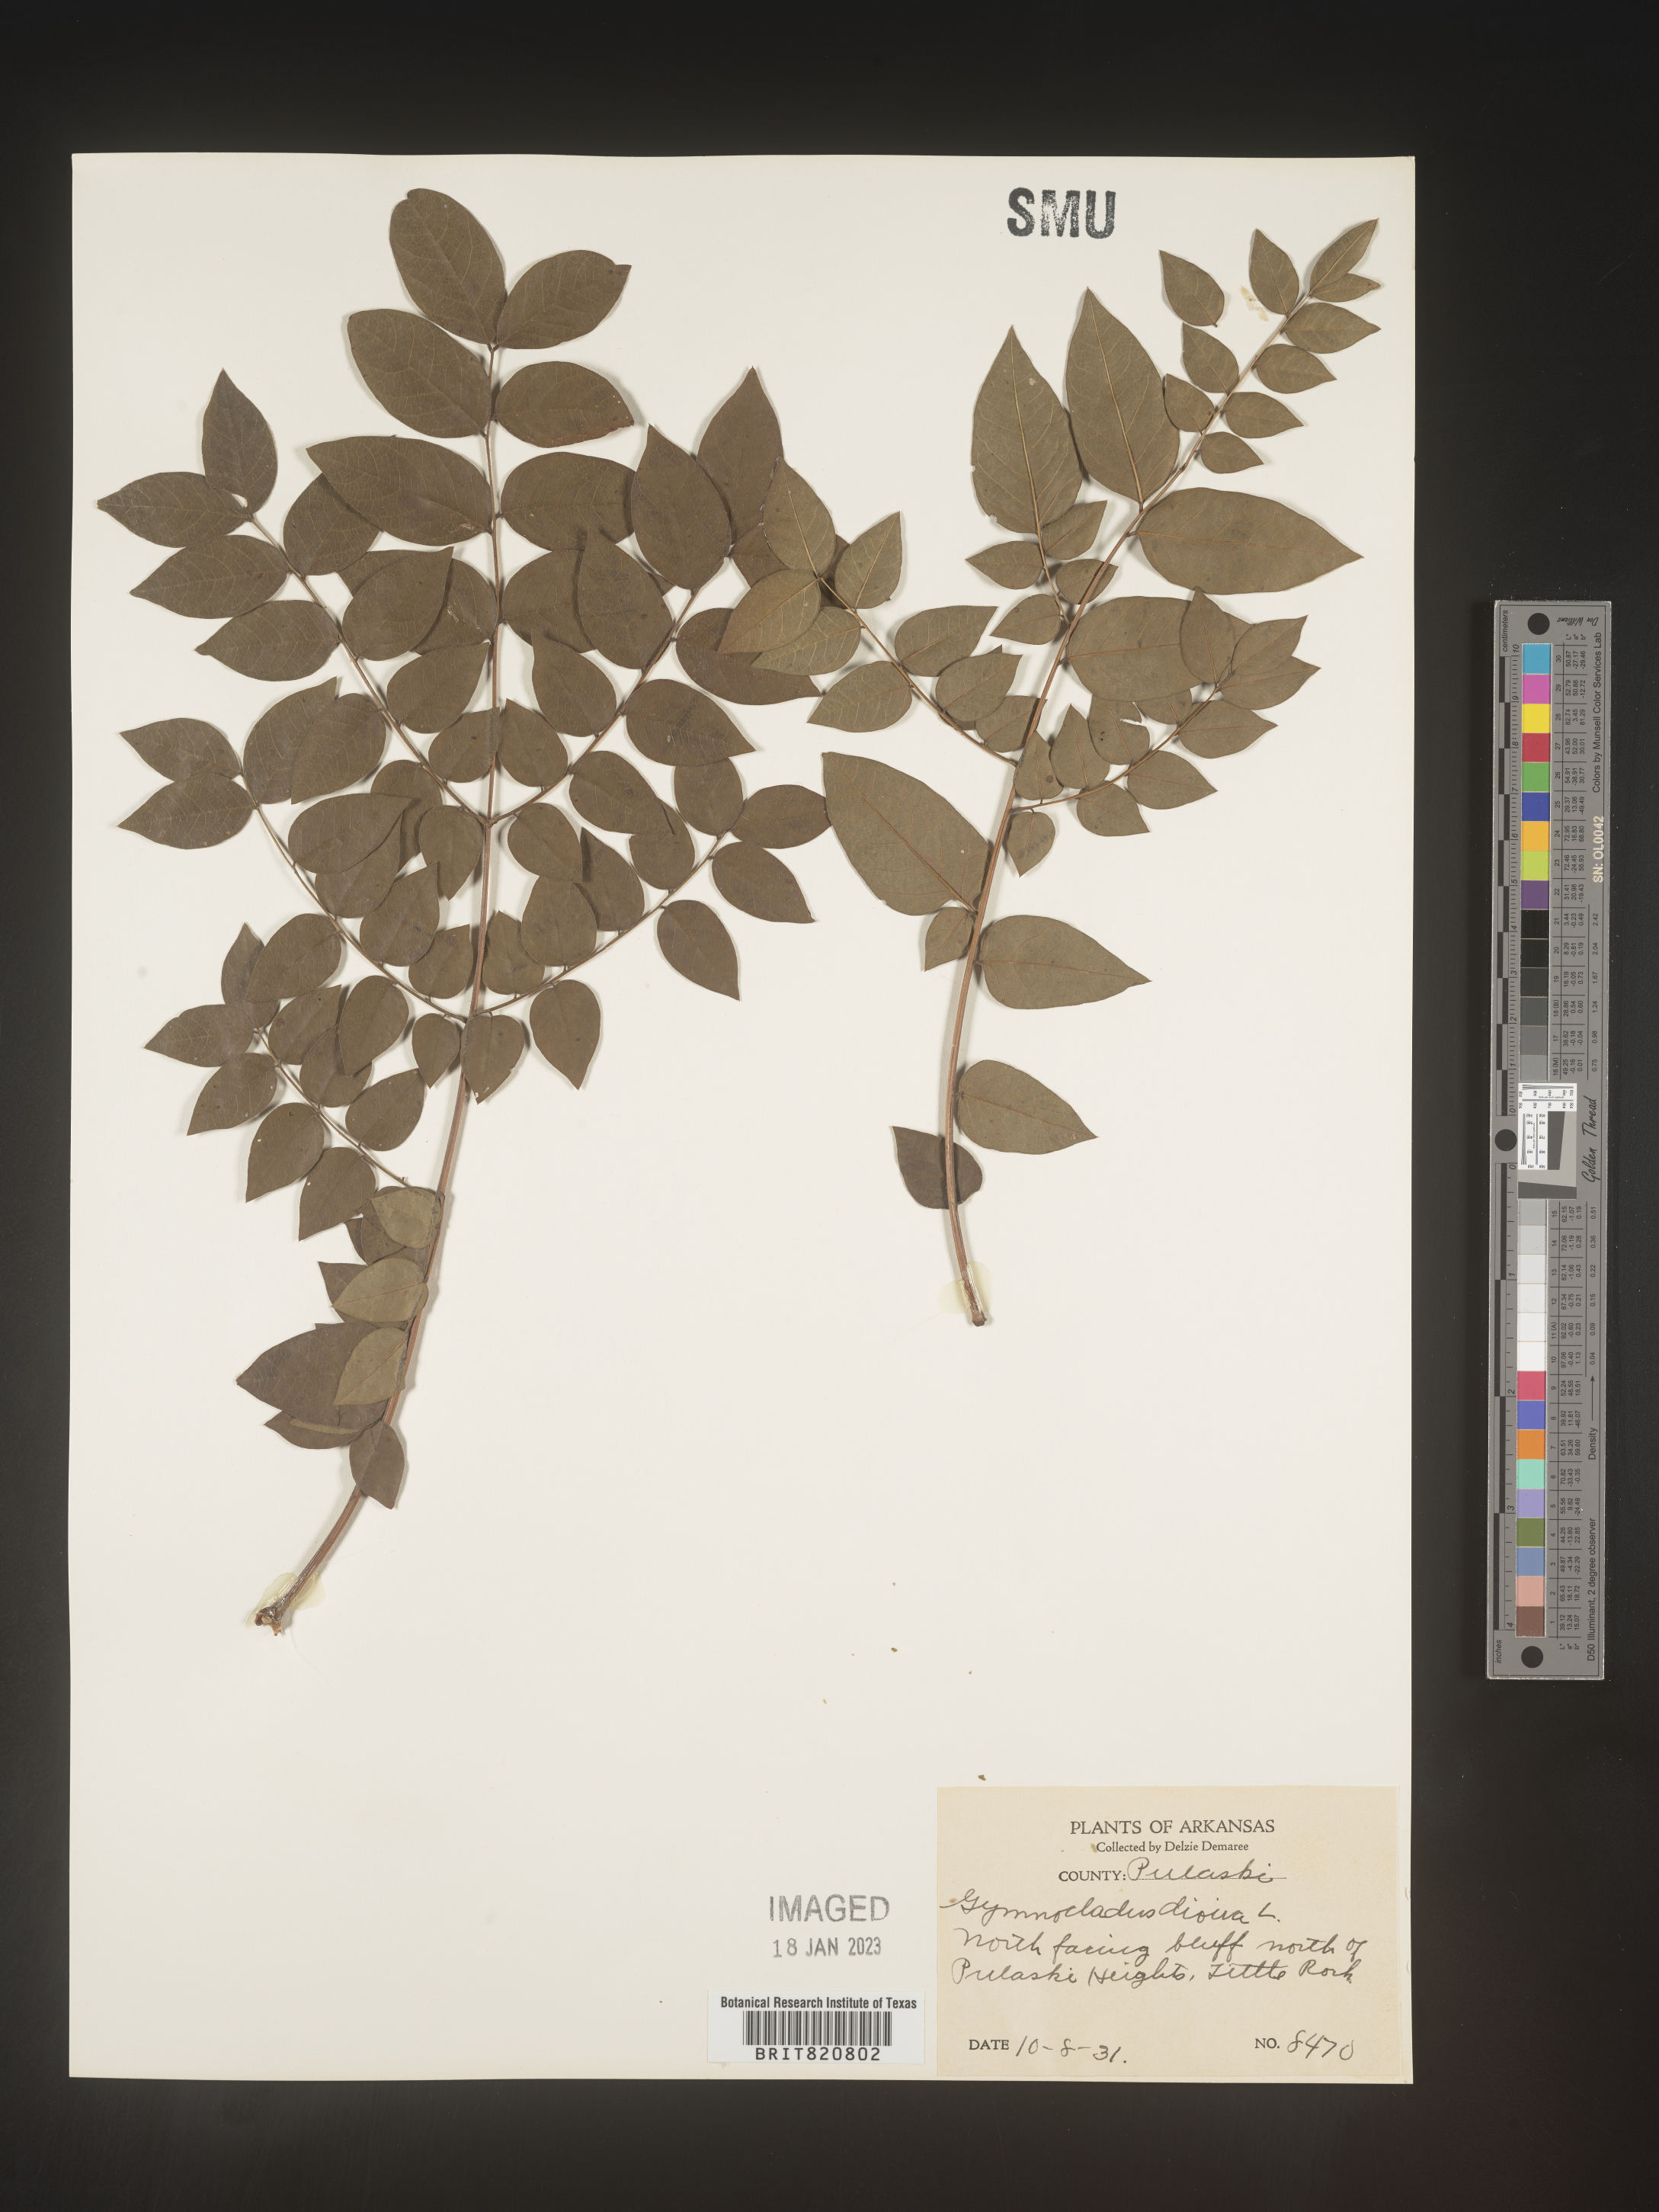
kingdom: Plantae
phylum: Tracheophyta
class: Magnoliopsida
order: Fabales
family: Fabaceae
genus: Gymnocladus
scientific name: Gymnocladus
